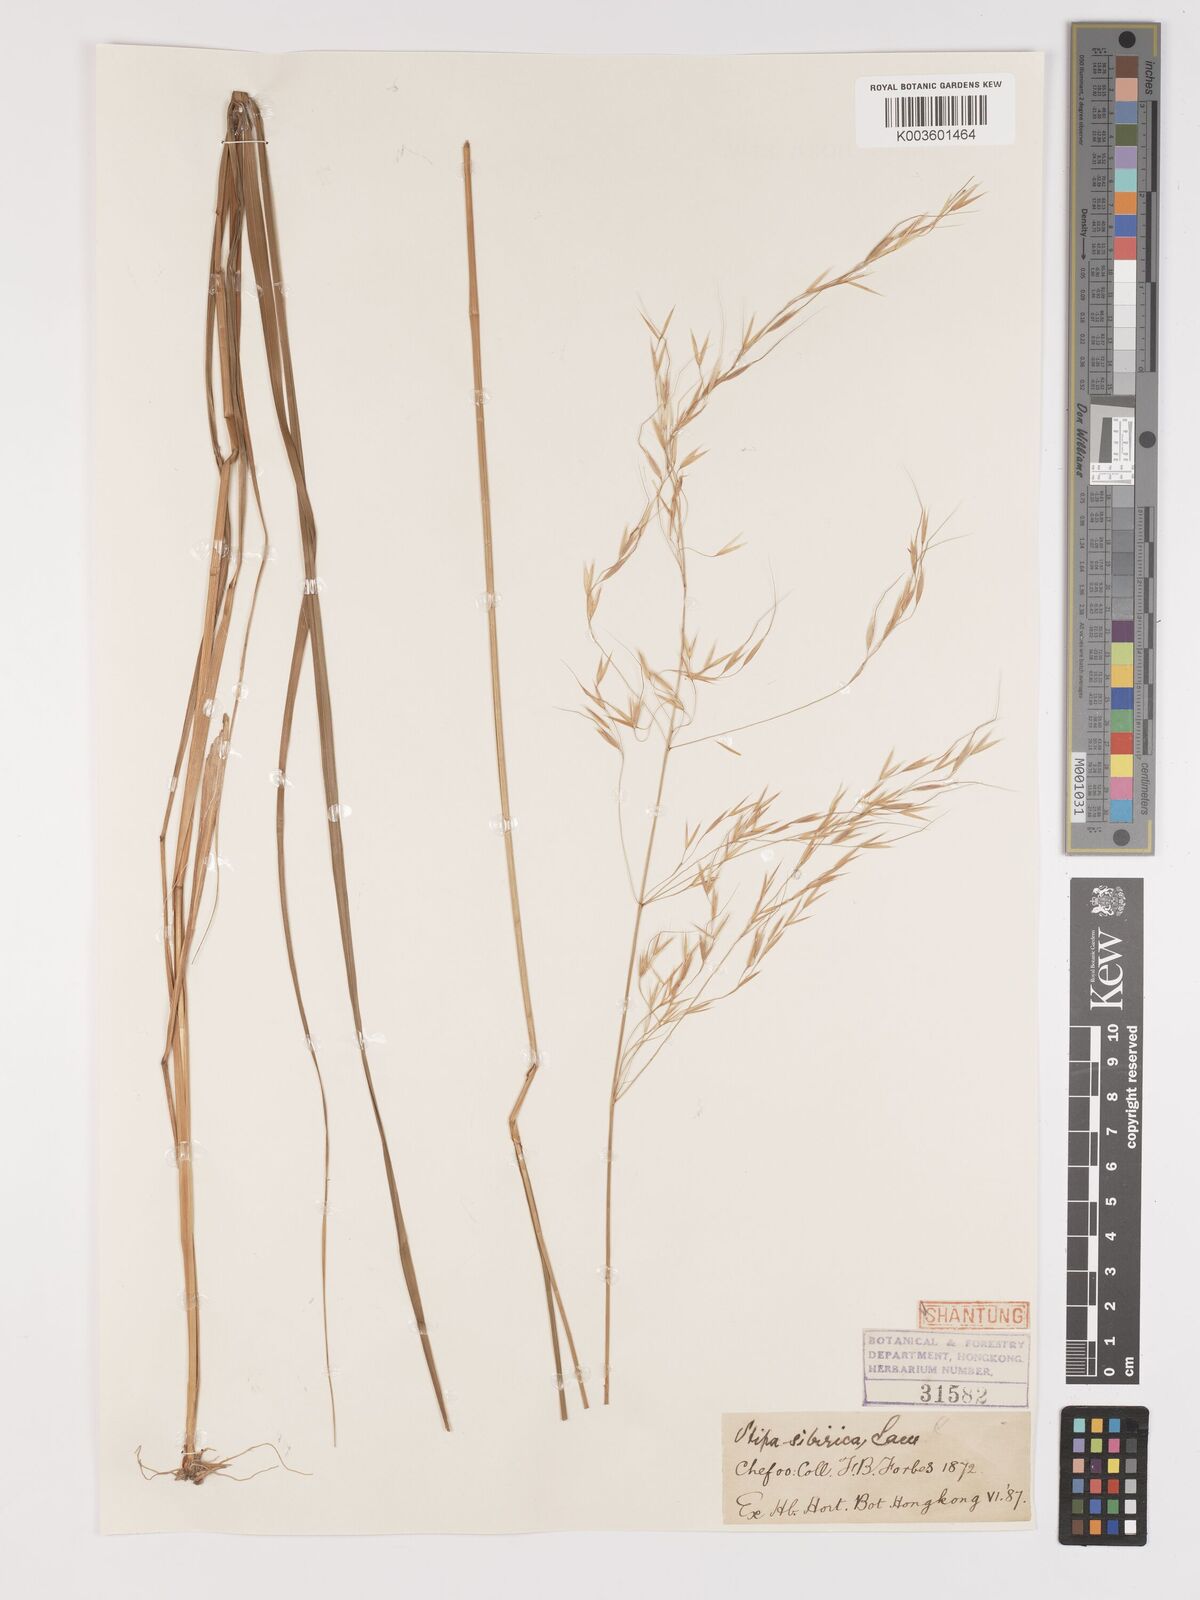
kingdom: Plantae
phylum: Tracheophyta
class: Liliopsida
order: Poales
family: Poaceae
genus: Achnatherum
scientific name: Achnatherum pekinense
